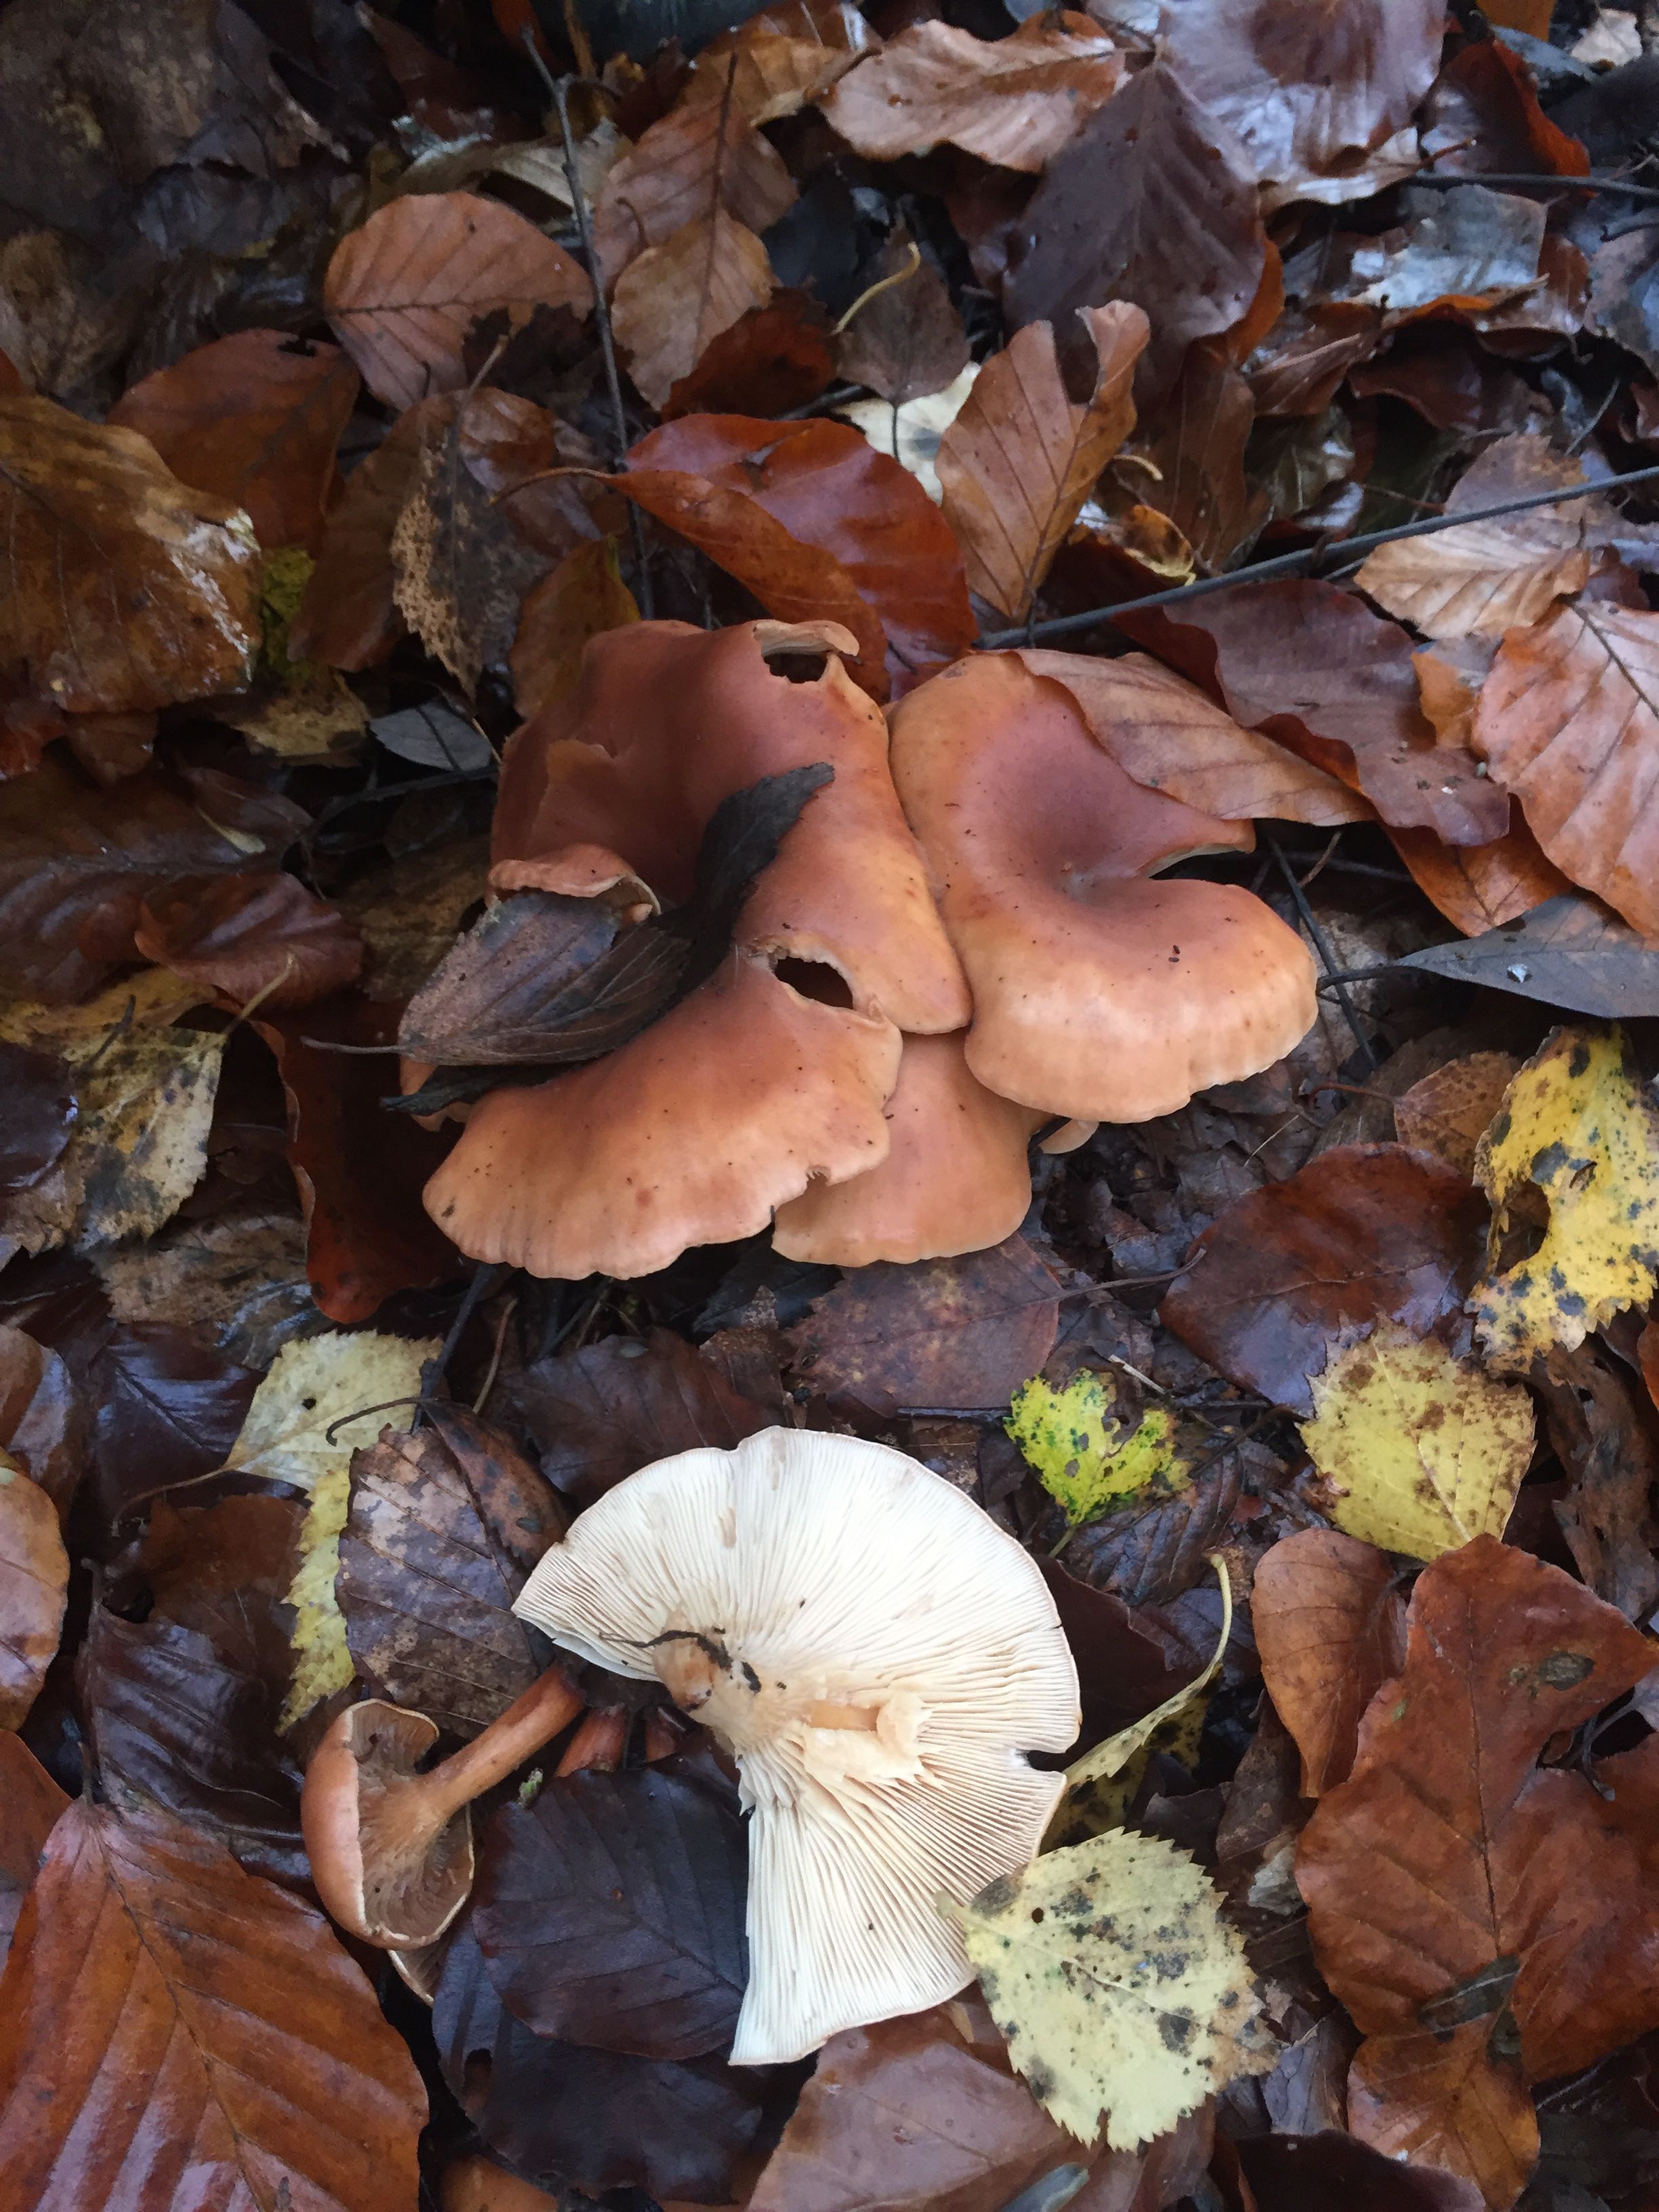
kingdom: Fungi
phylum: Basidiomycota
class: Agaricomycetes
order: Agaricales
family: Tricholomataceae
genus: Paralepista
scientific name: Paralepista flaccida
